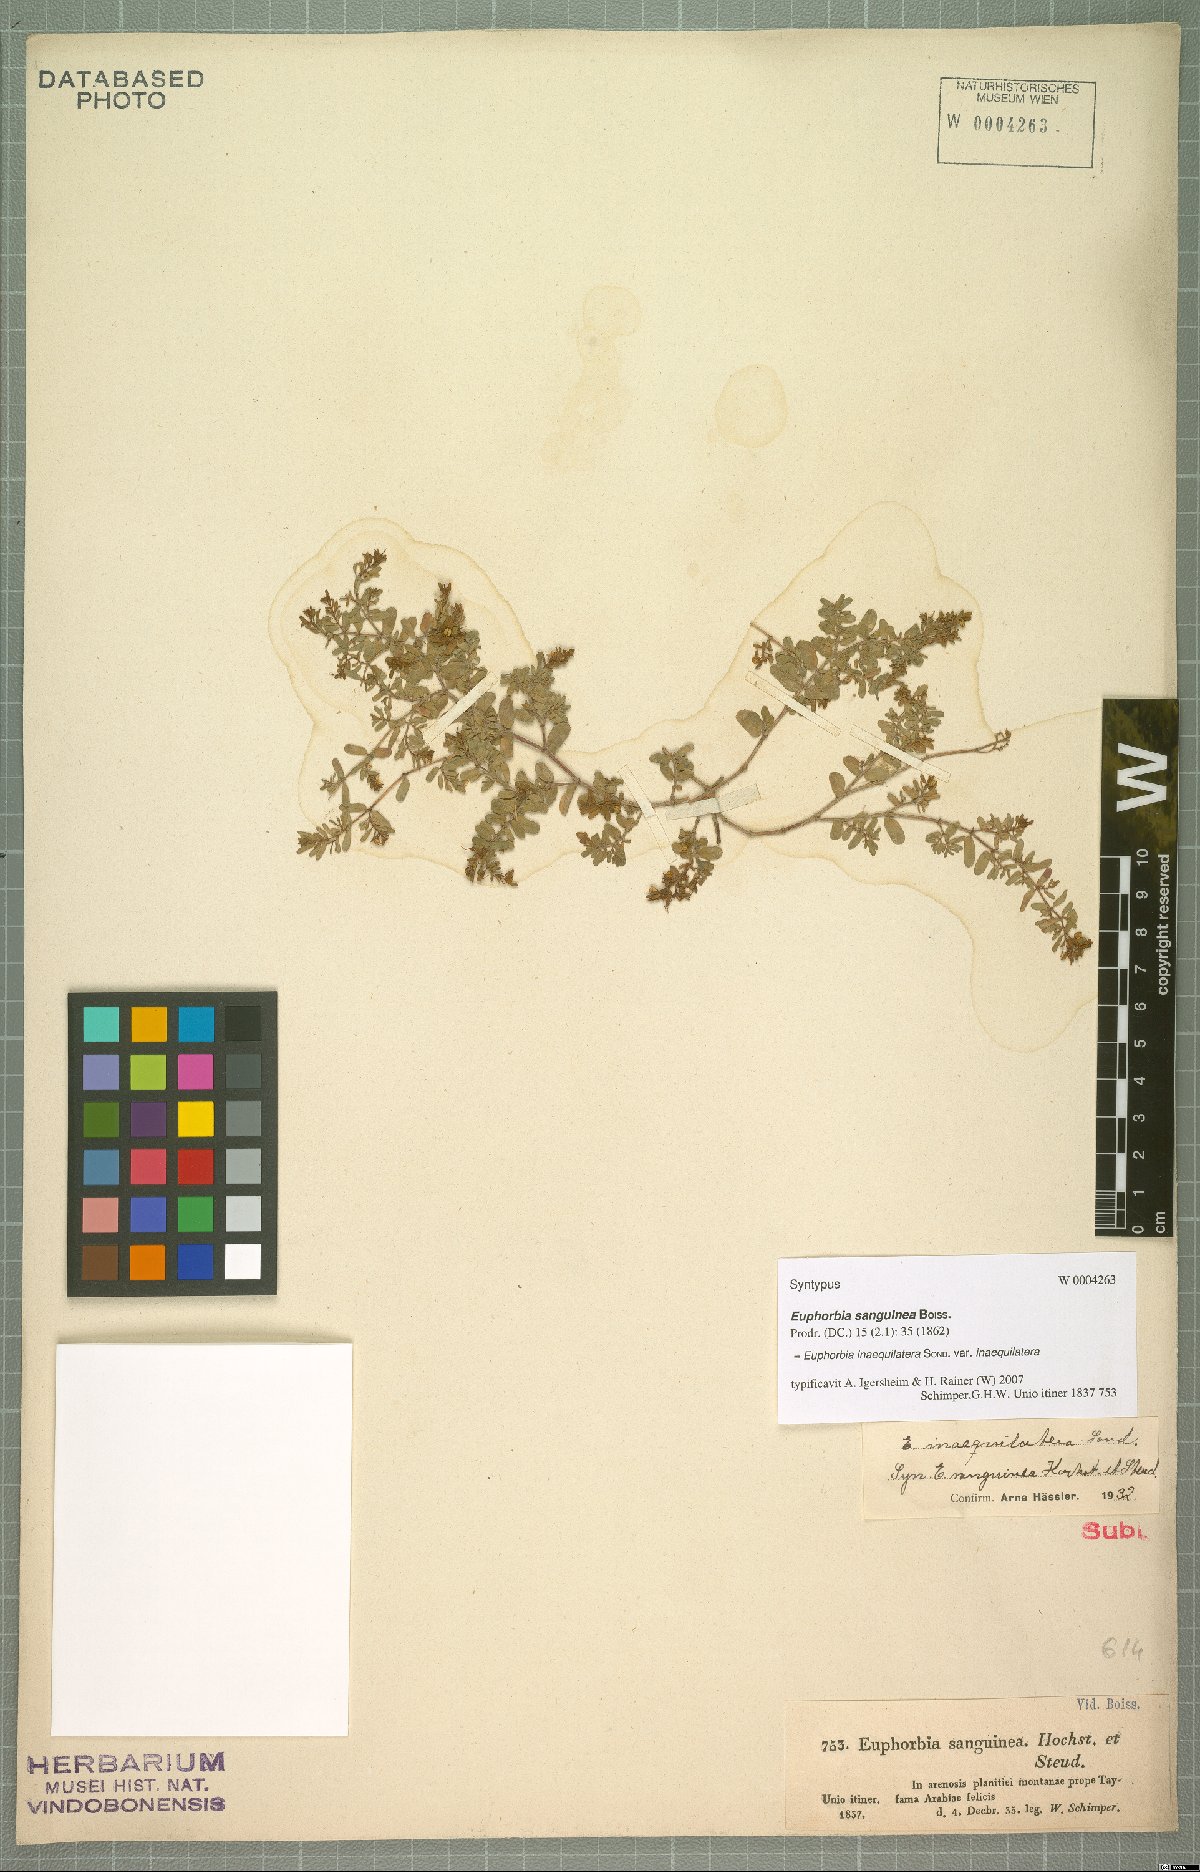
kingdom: Plantae
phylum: Tracheophyta
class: Magnoliopsida
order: Malpighiales
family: Euphorbiaceae
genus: Euphorbia
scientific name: Euphorbia inaequilatera
